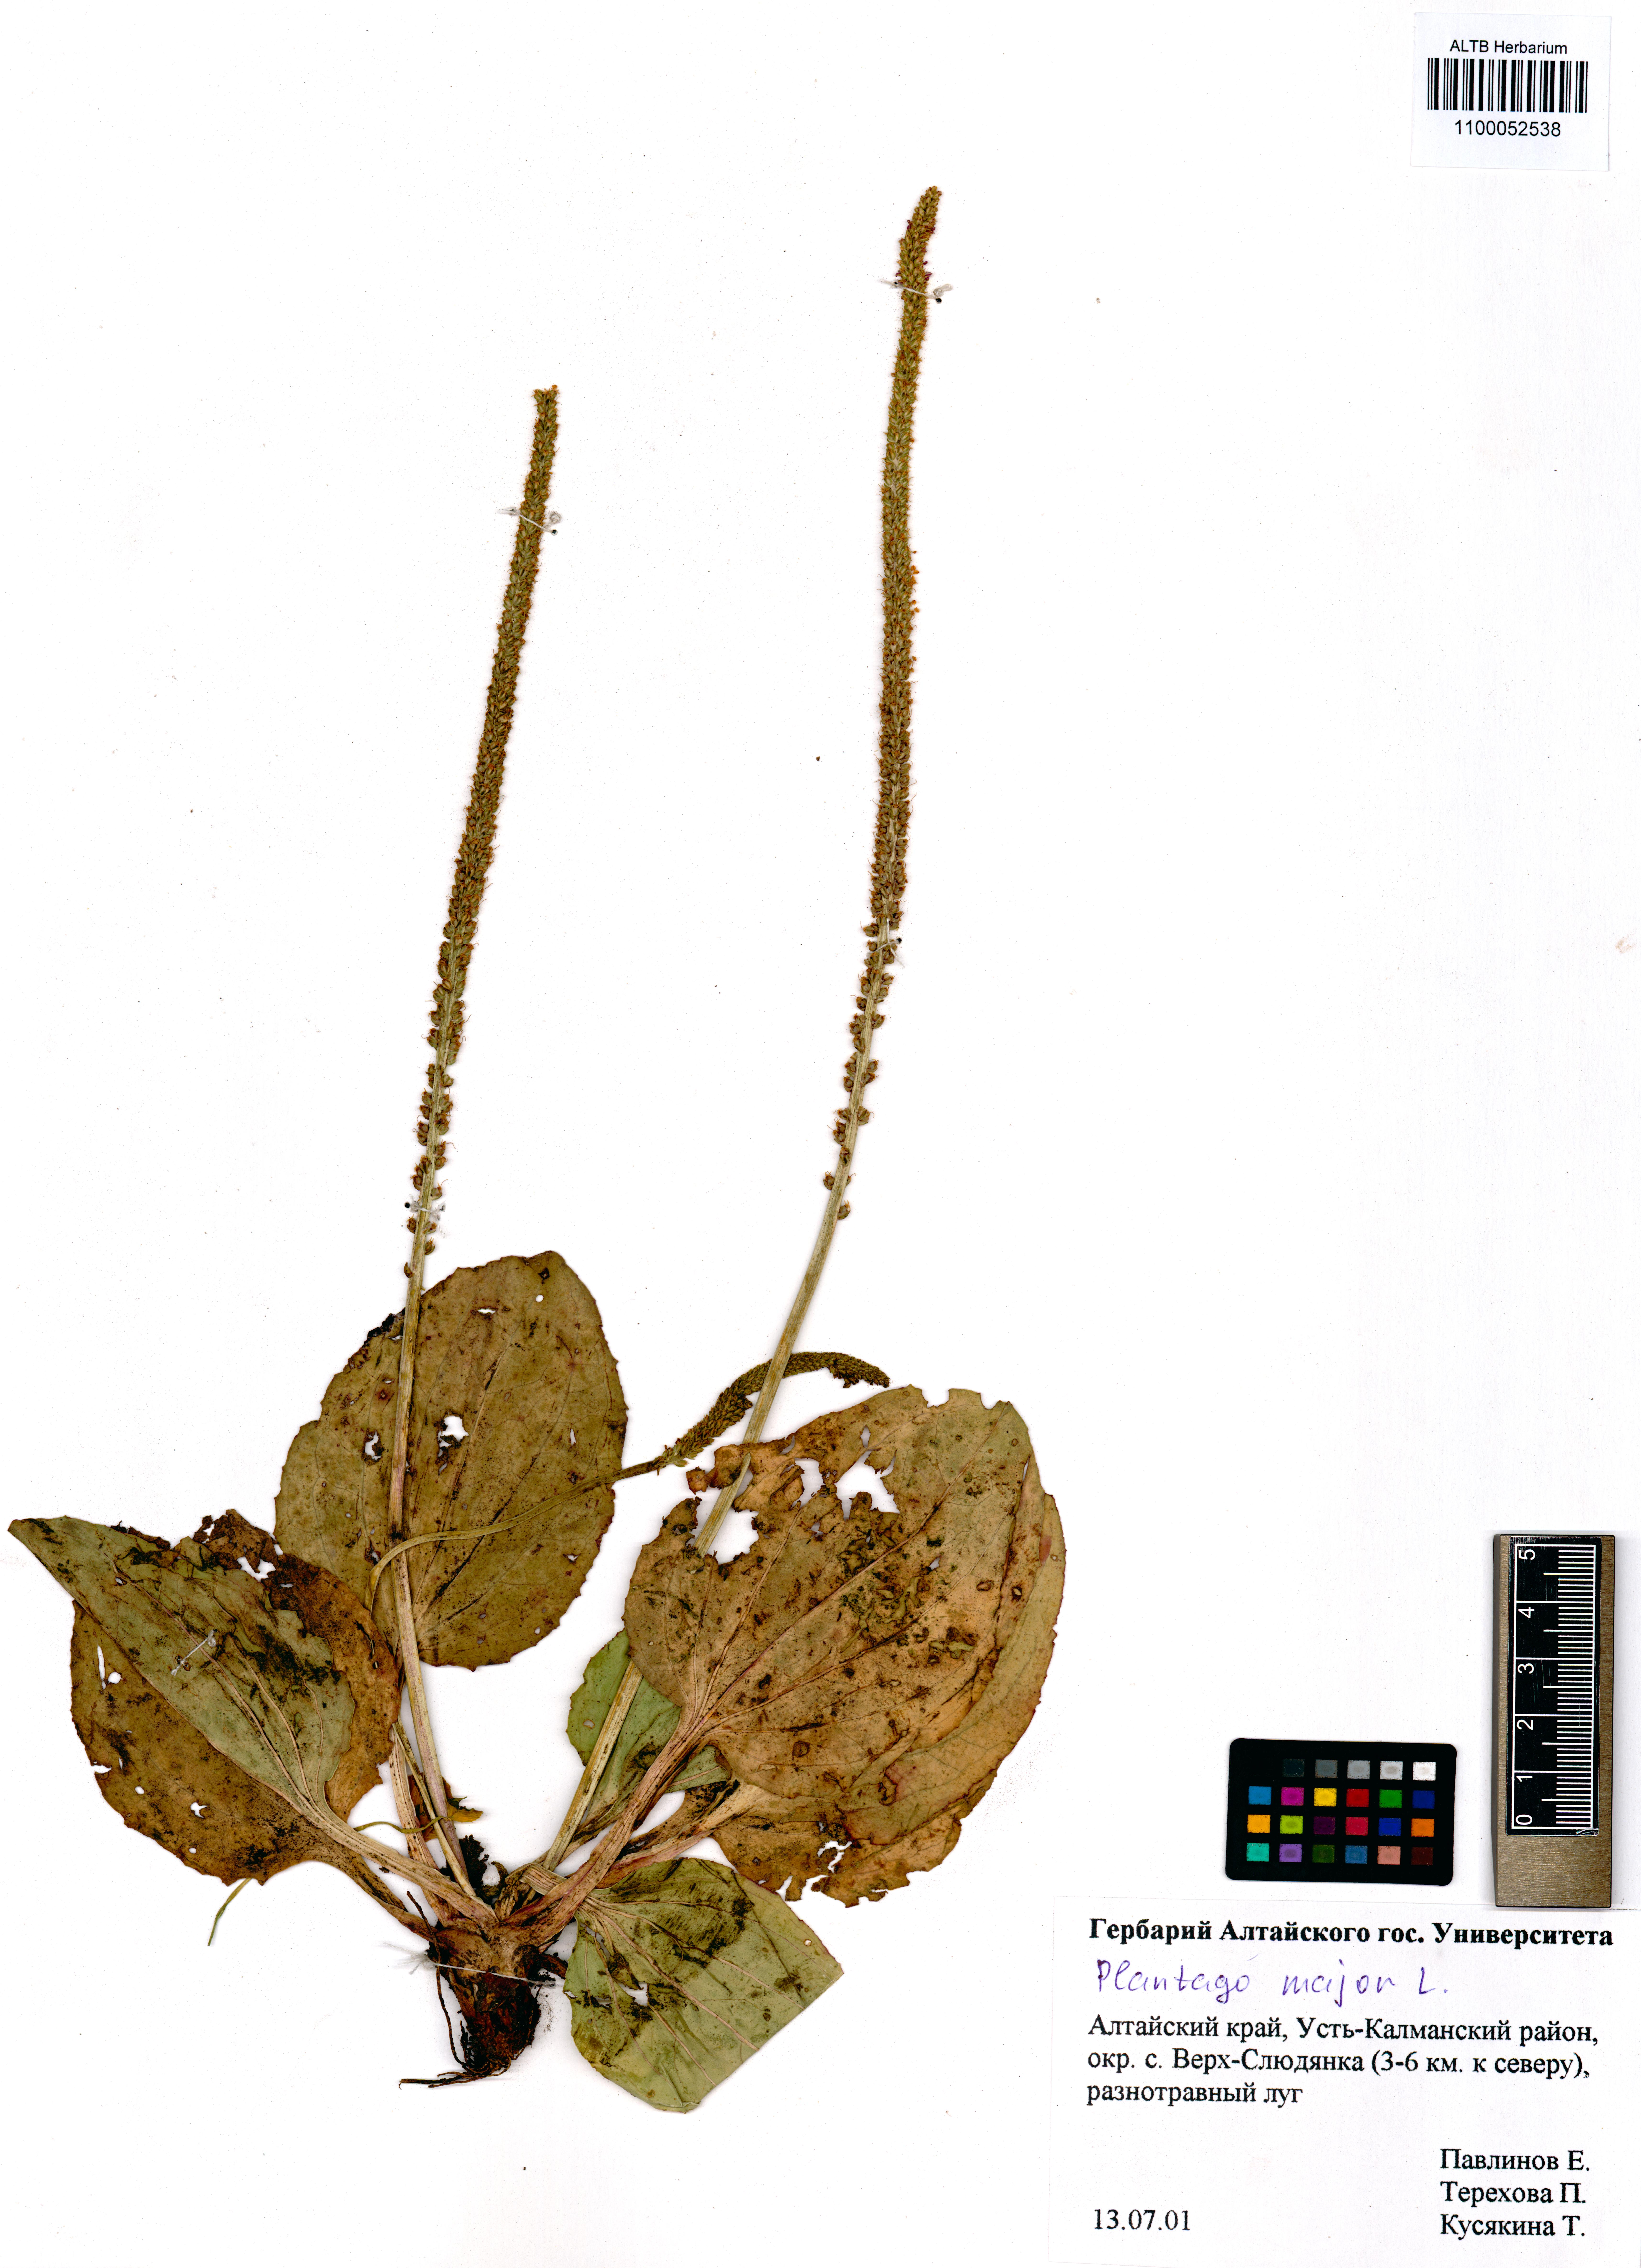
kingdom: Plantae
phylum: Tracheophyta
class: Magnoliopsida
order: Lamiales
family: Plantaginaceae
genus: Plantago
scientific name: Plantago major
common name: Common plantain
